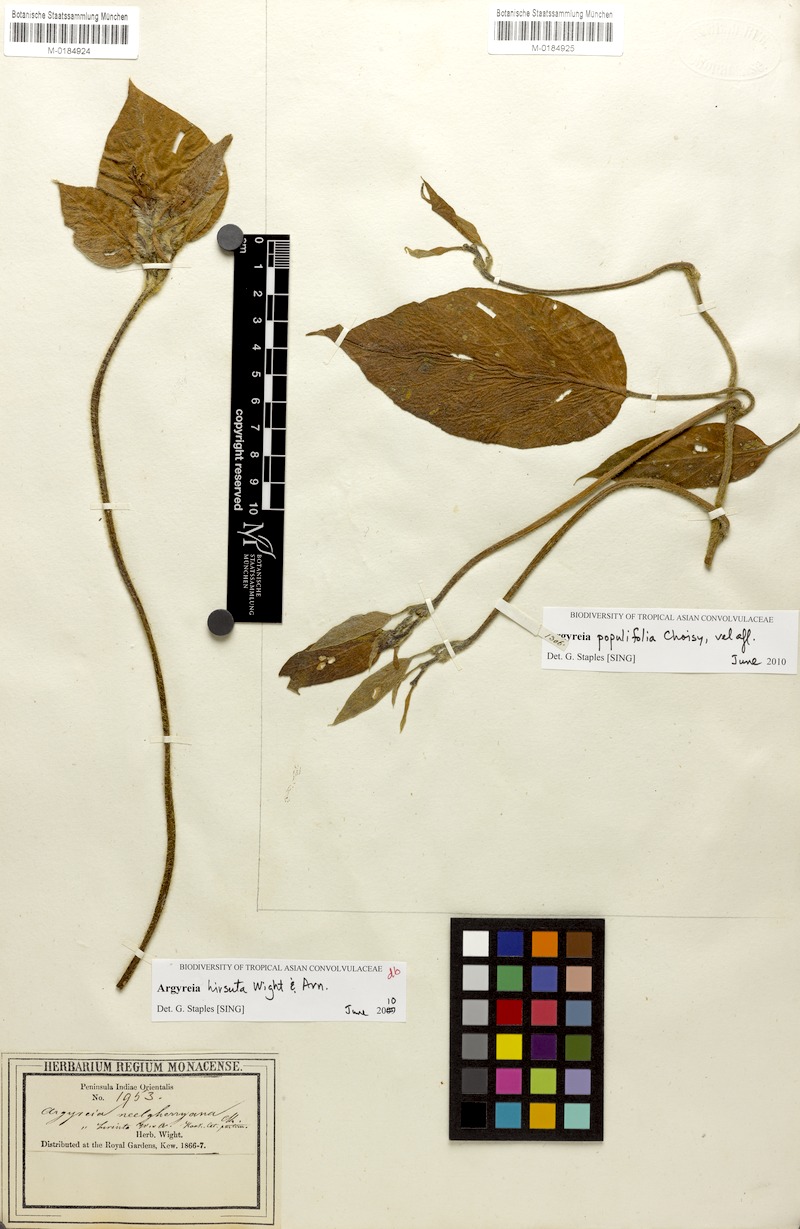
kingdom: Plantae
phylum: Tracheophyta
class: Magnoliopsida
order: Solanales
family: Convolvulaceae
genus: Argyreia
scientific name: Argyreia
